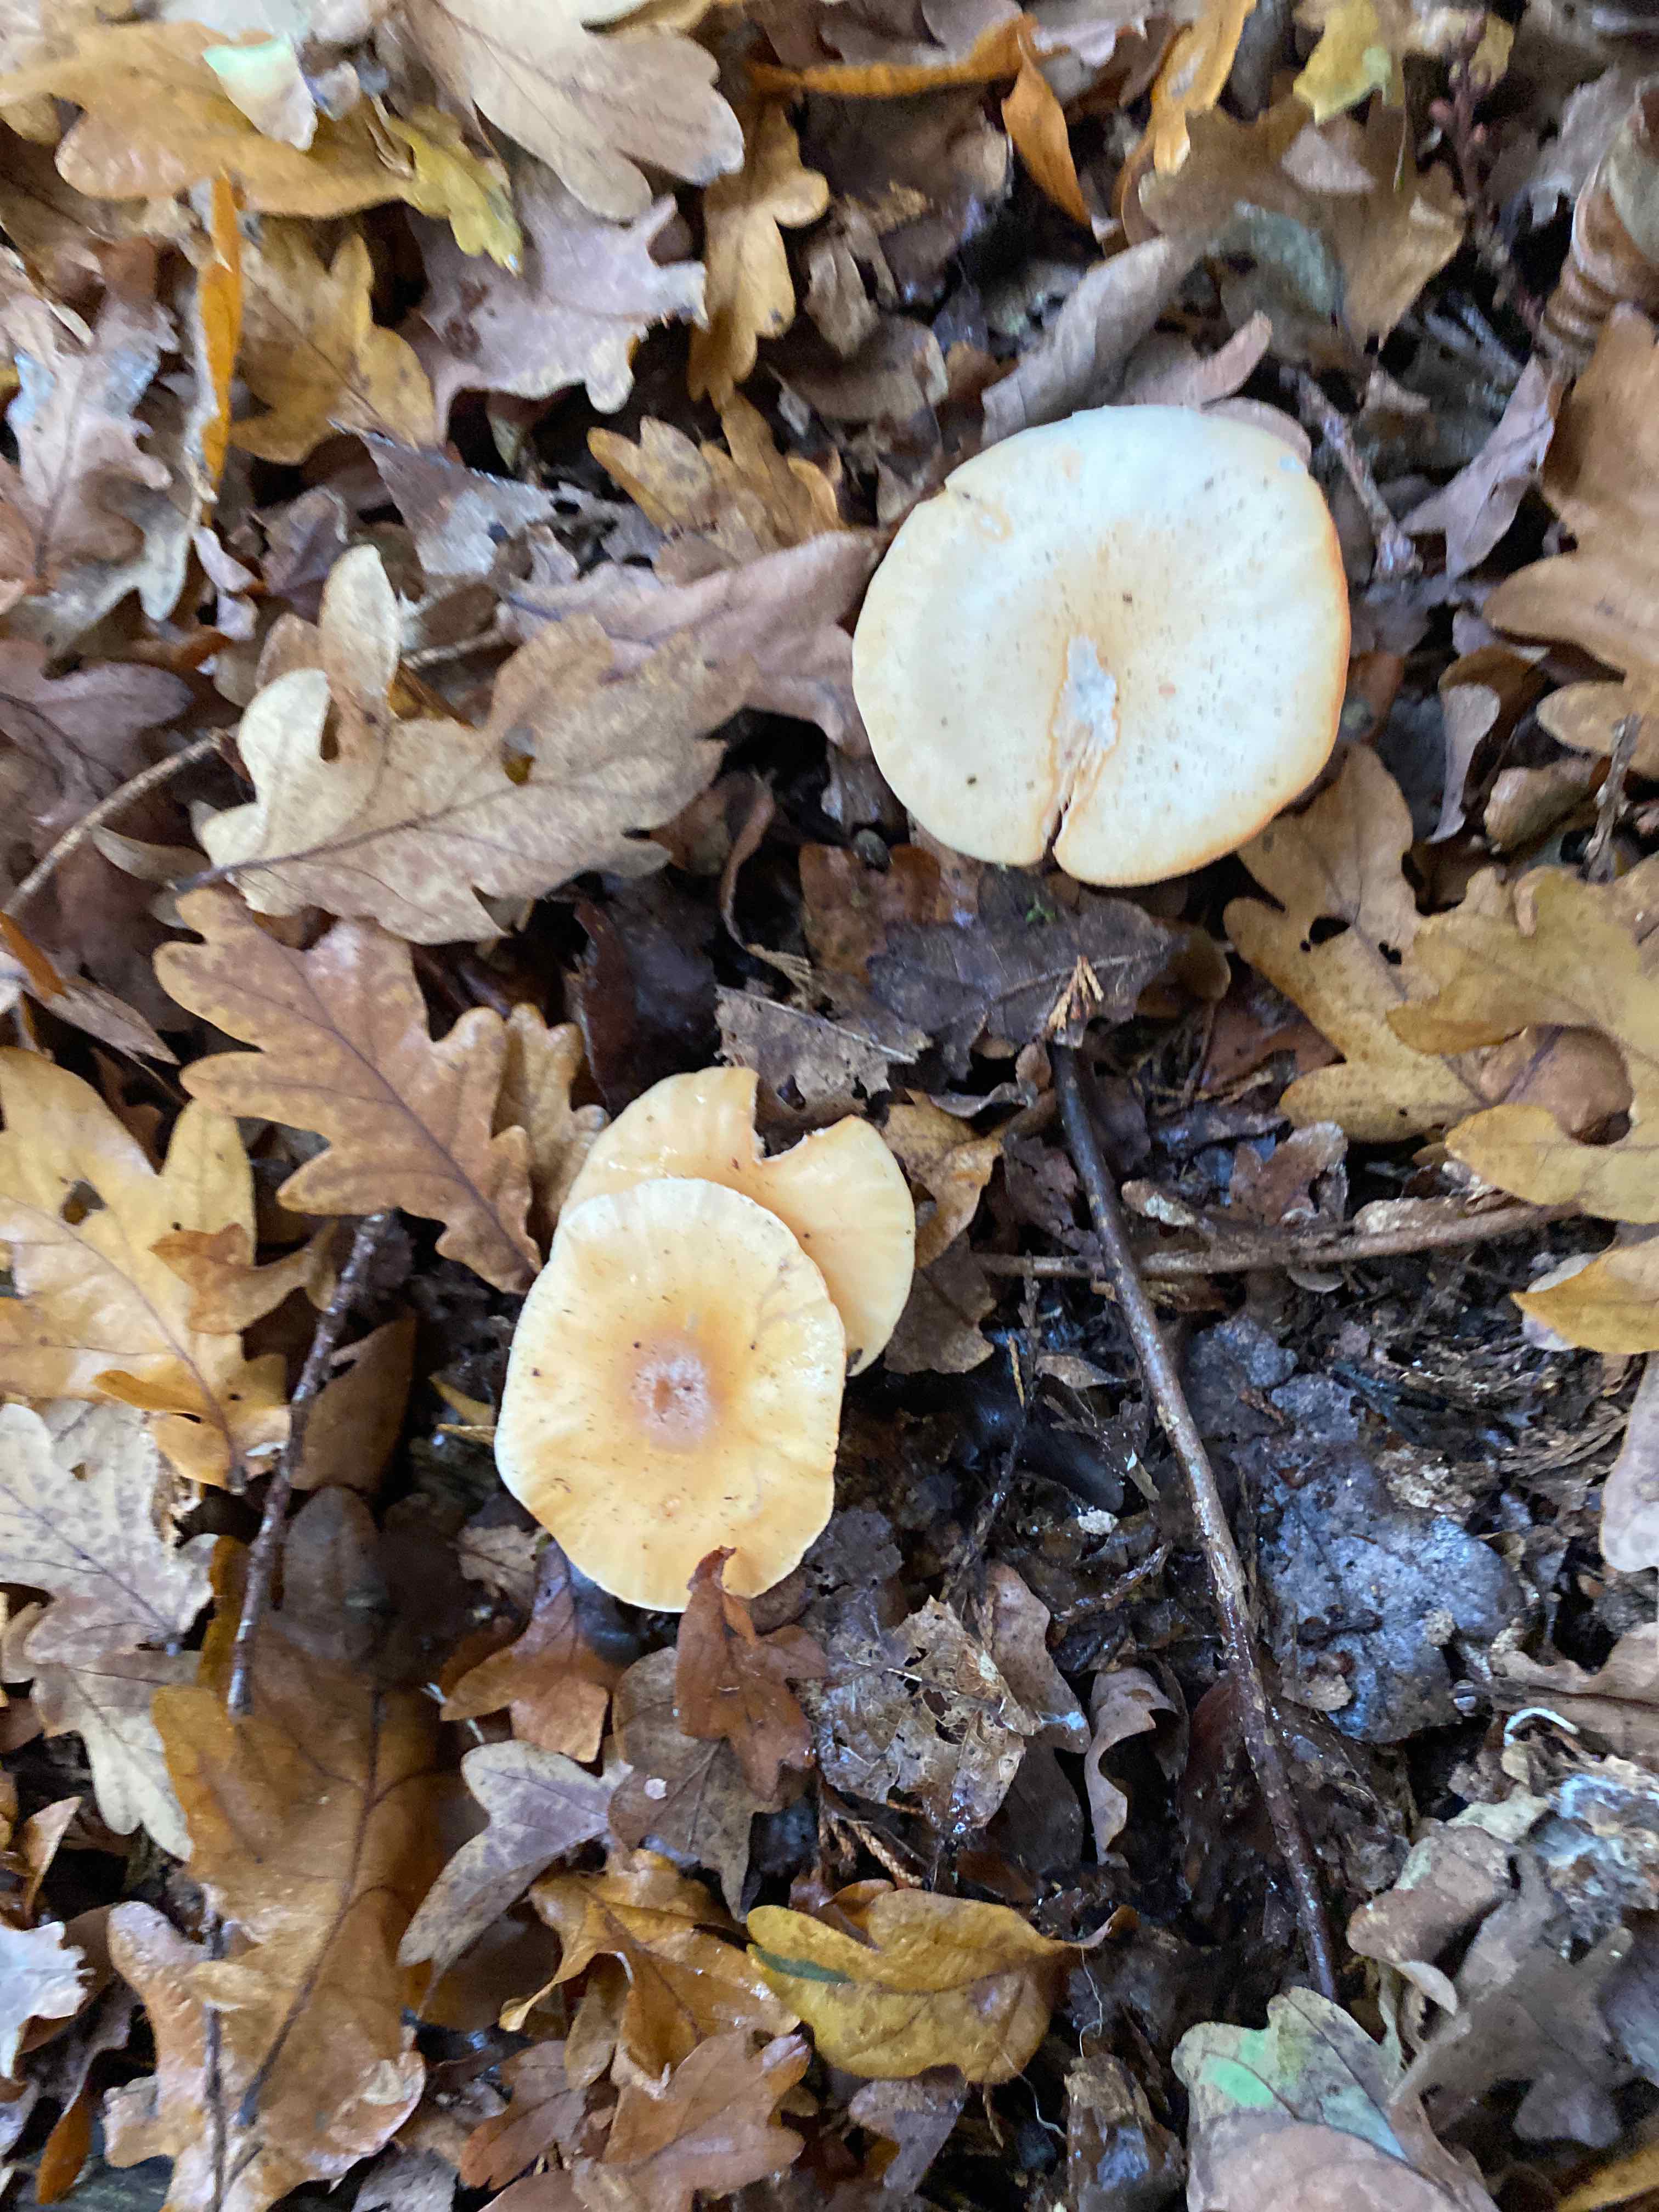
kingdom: Fungi
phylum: Basidiomycota
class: Agaricomycetes
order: Agaricales
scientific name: Agaricales
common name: champignonordenen
